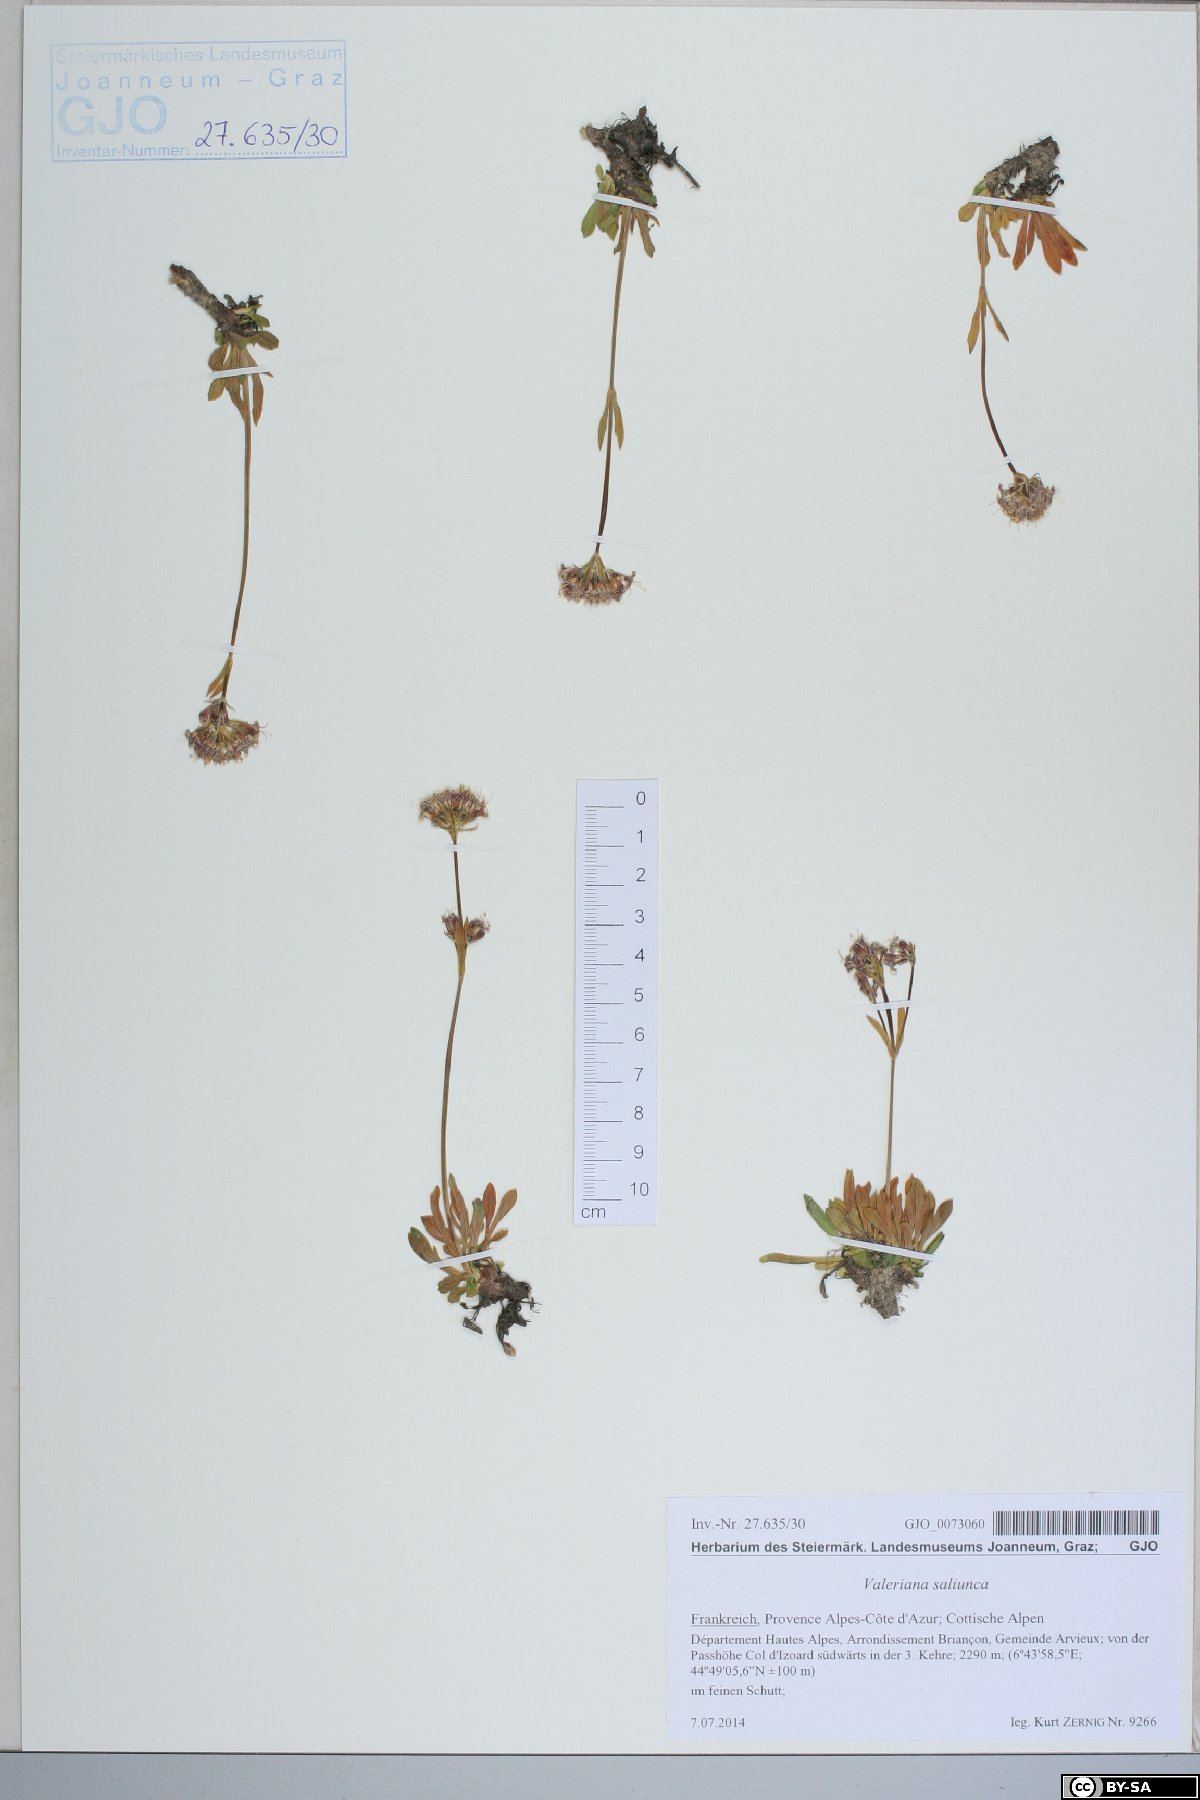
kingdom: Plantae
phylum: Tracheophyta
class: Magnoliopsida
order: Dipsacales
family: Caprifoliaceae
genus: Valeriana
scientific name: Valeriana saliunca
